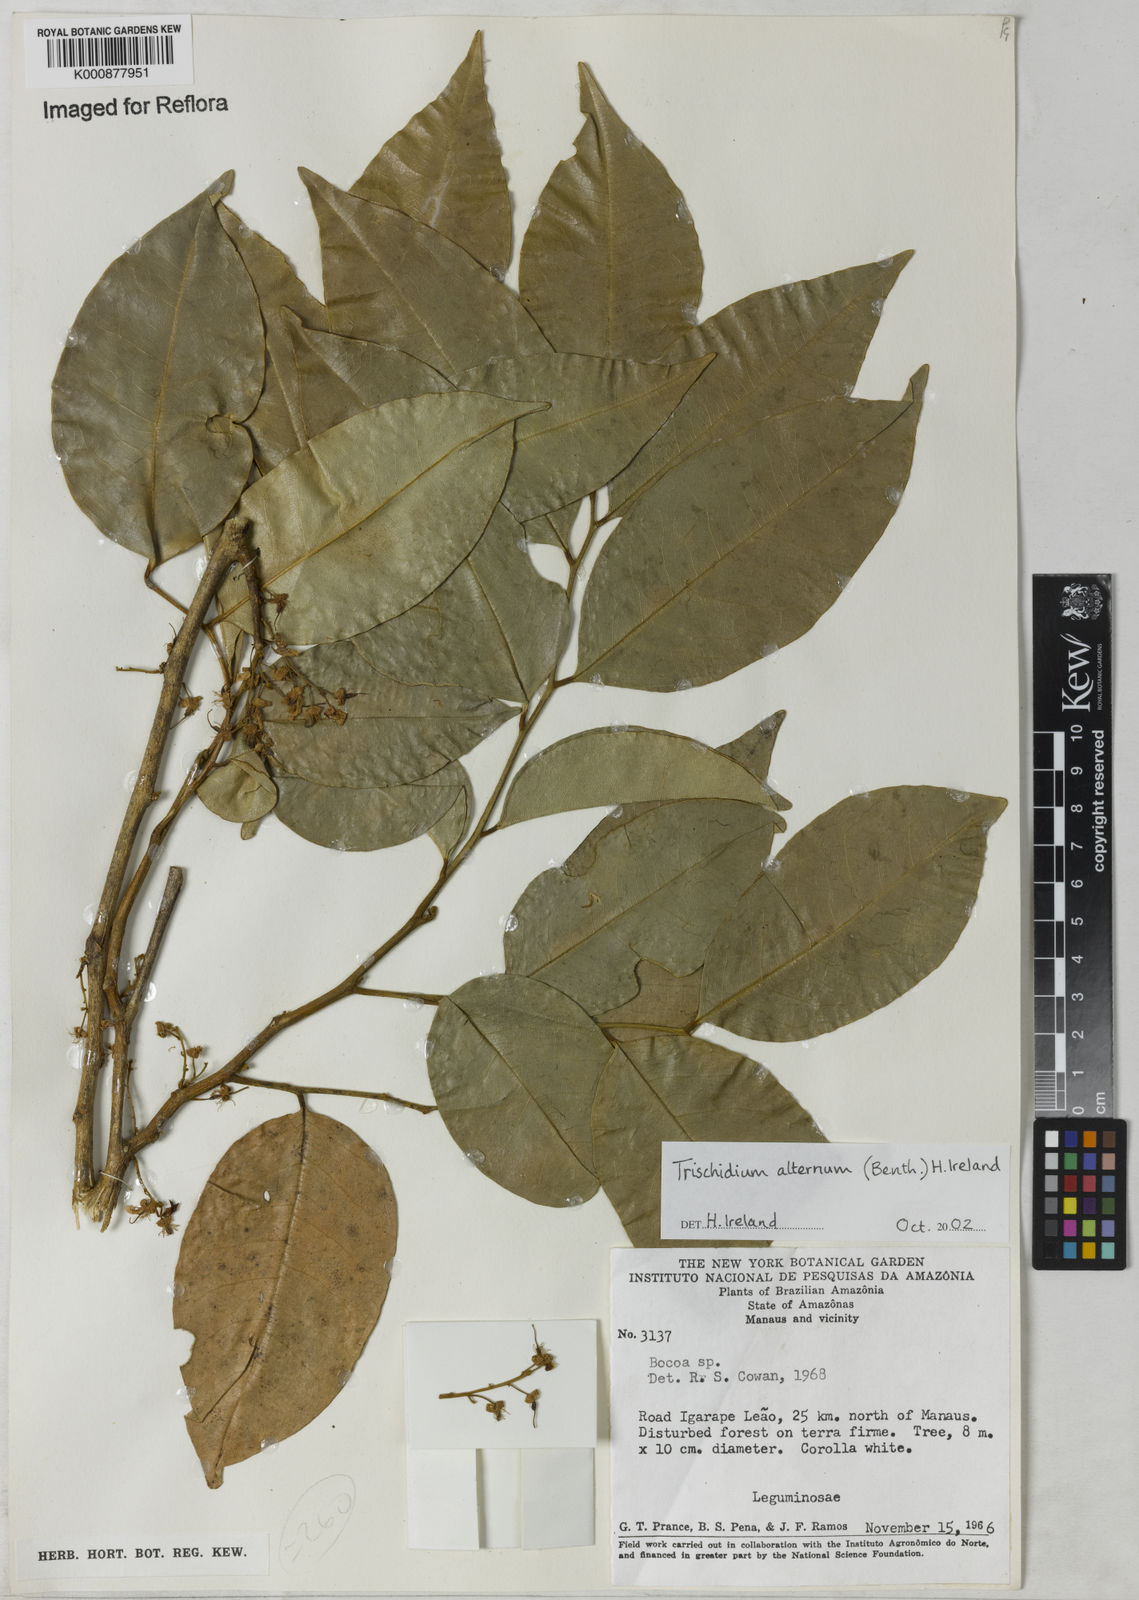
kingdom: Plantae
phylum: Tracheophyta
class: Magnoliopsida
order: Fabales
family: Fabaceae
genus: Trischidium
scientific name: Trischidium alternum
